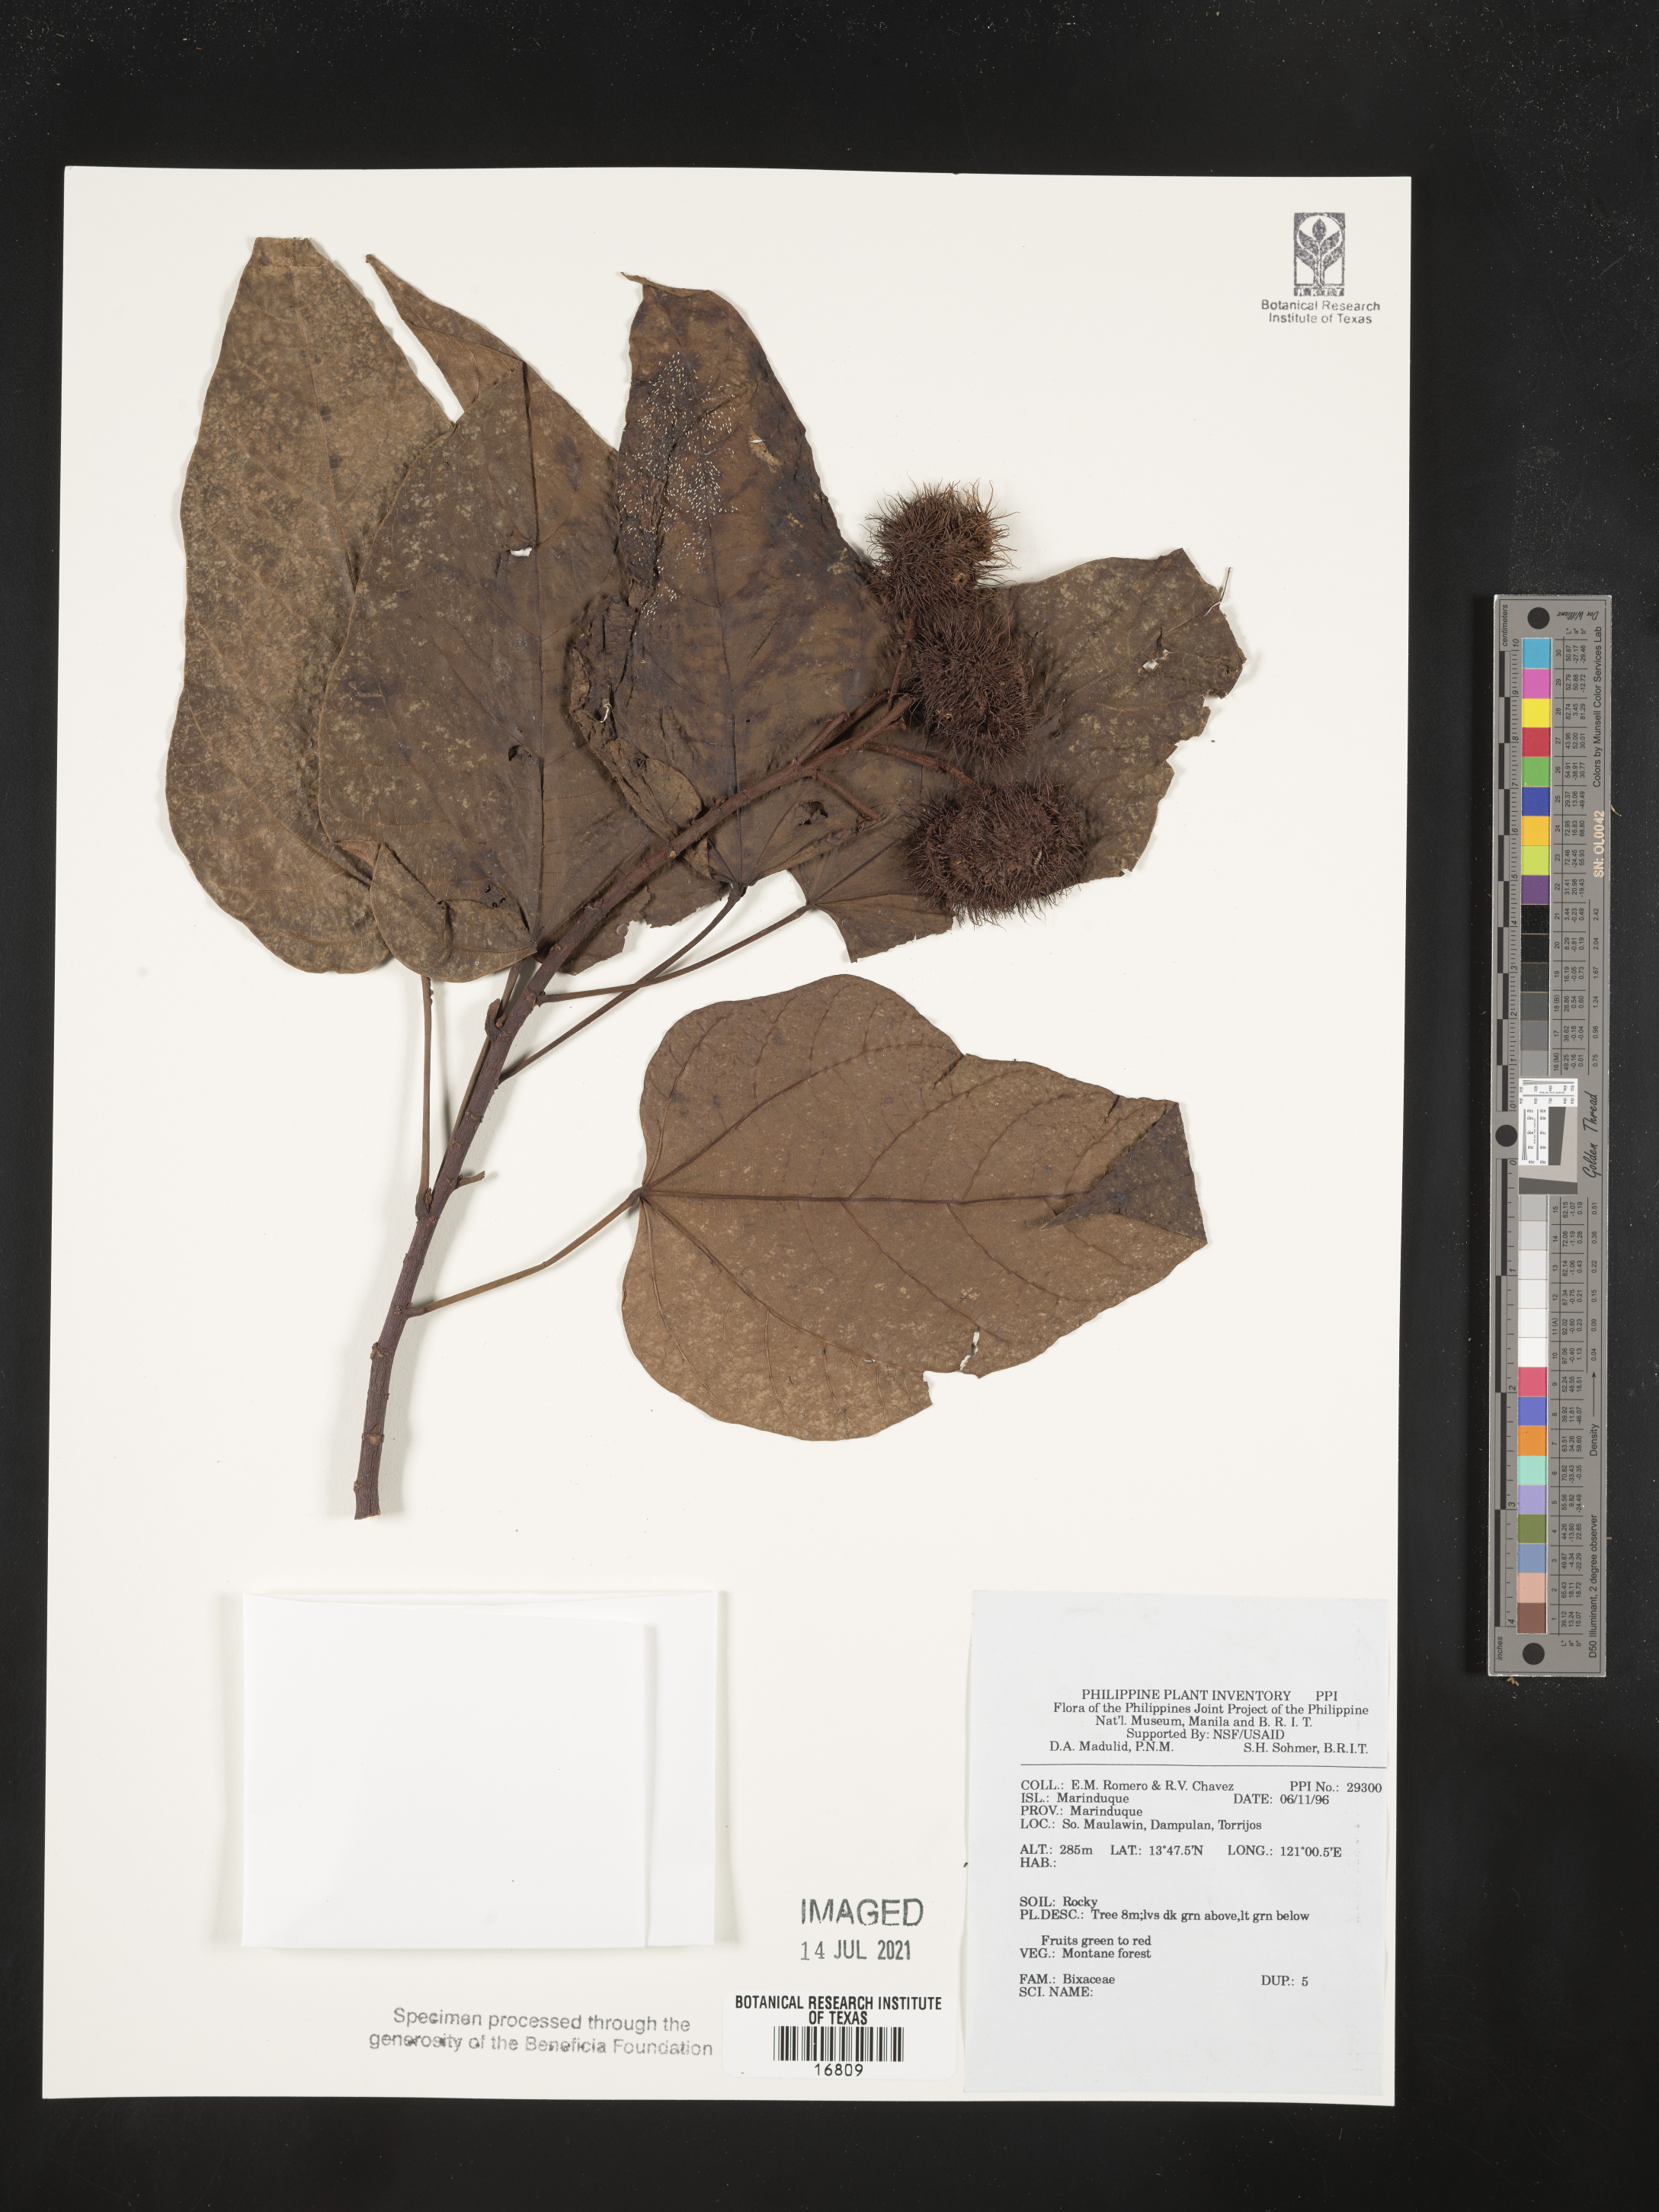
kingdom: Plantae
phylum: Tracheophyta
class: Magnoliopsida
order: Malvales
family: Bixaceae
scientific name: Bixaceae
